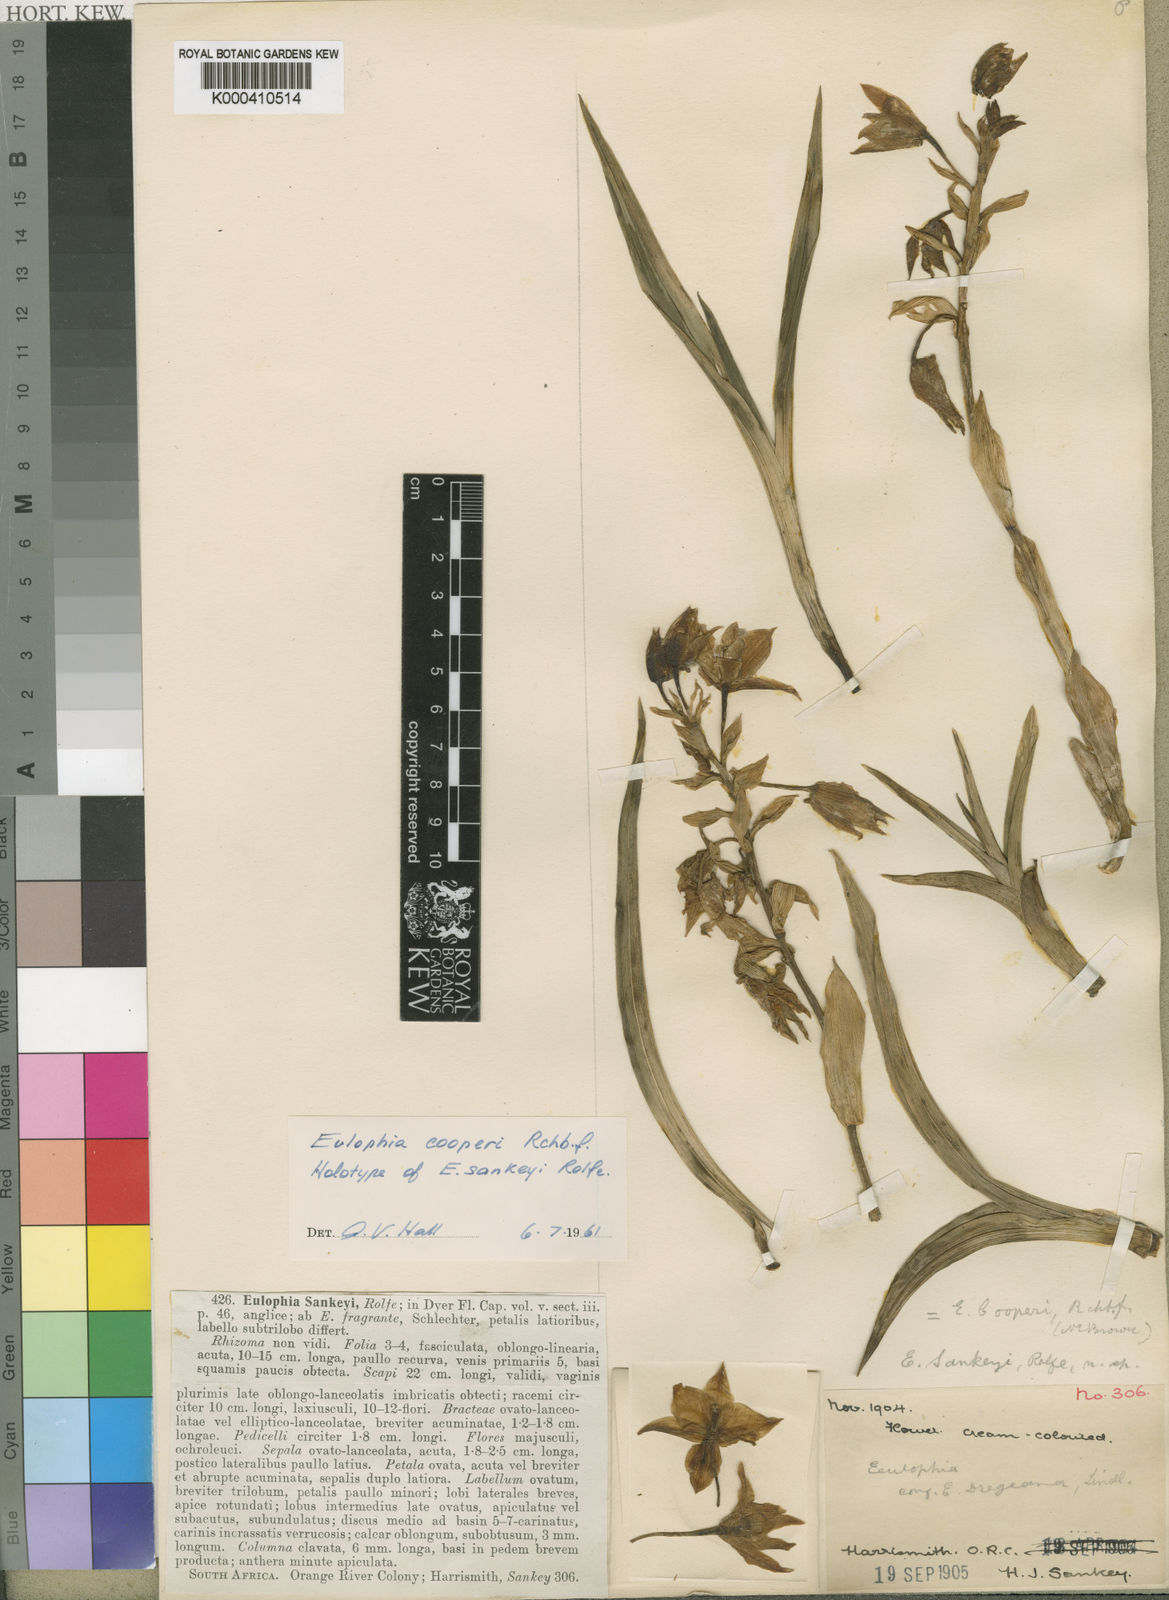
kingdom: Plantae
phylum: Tracheophyta
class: Liliopsida
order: Asparagales
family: Orchidaceae
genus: Eulophia
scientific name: Eulophia cooperi
